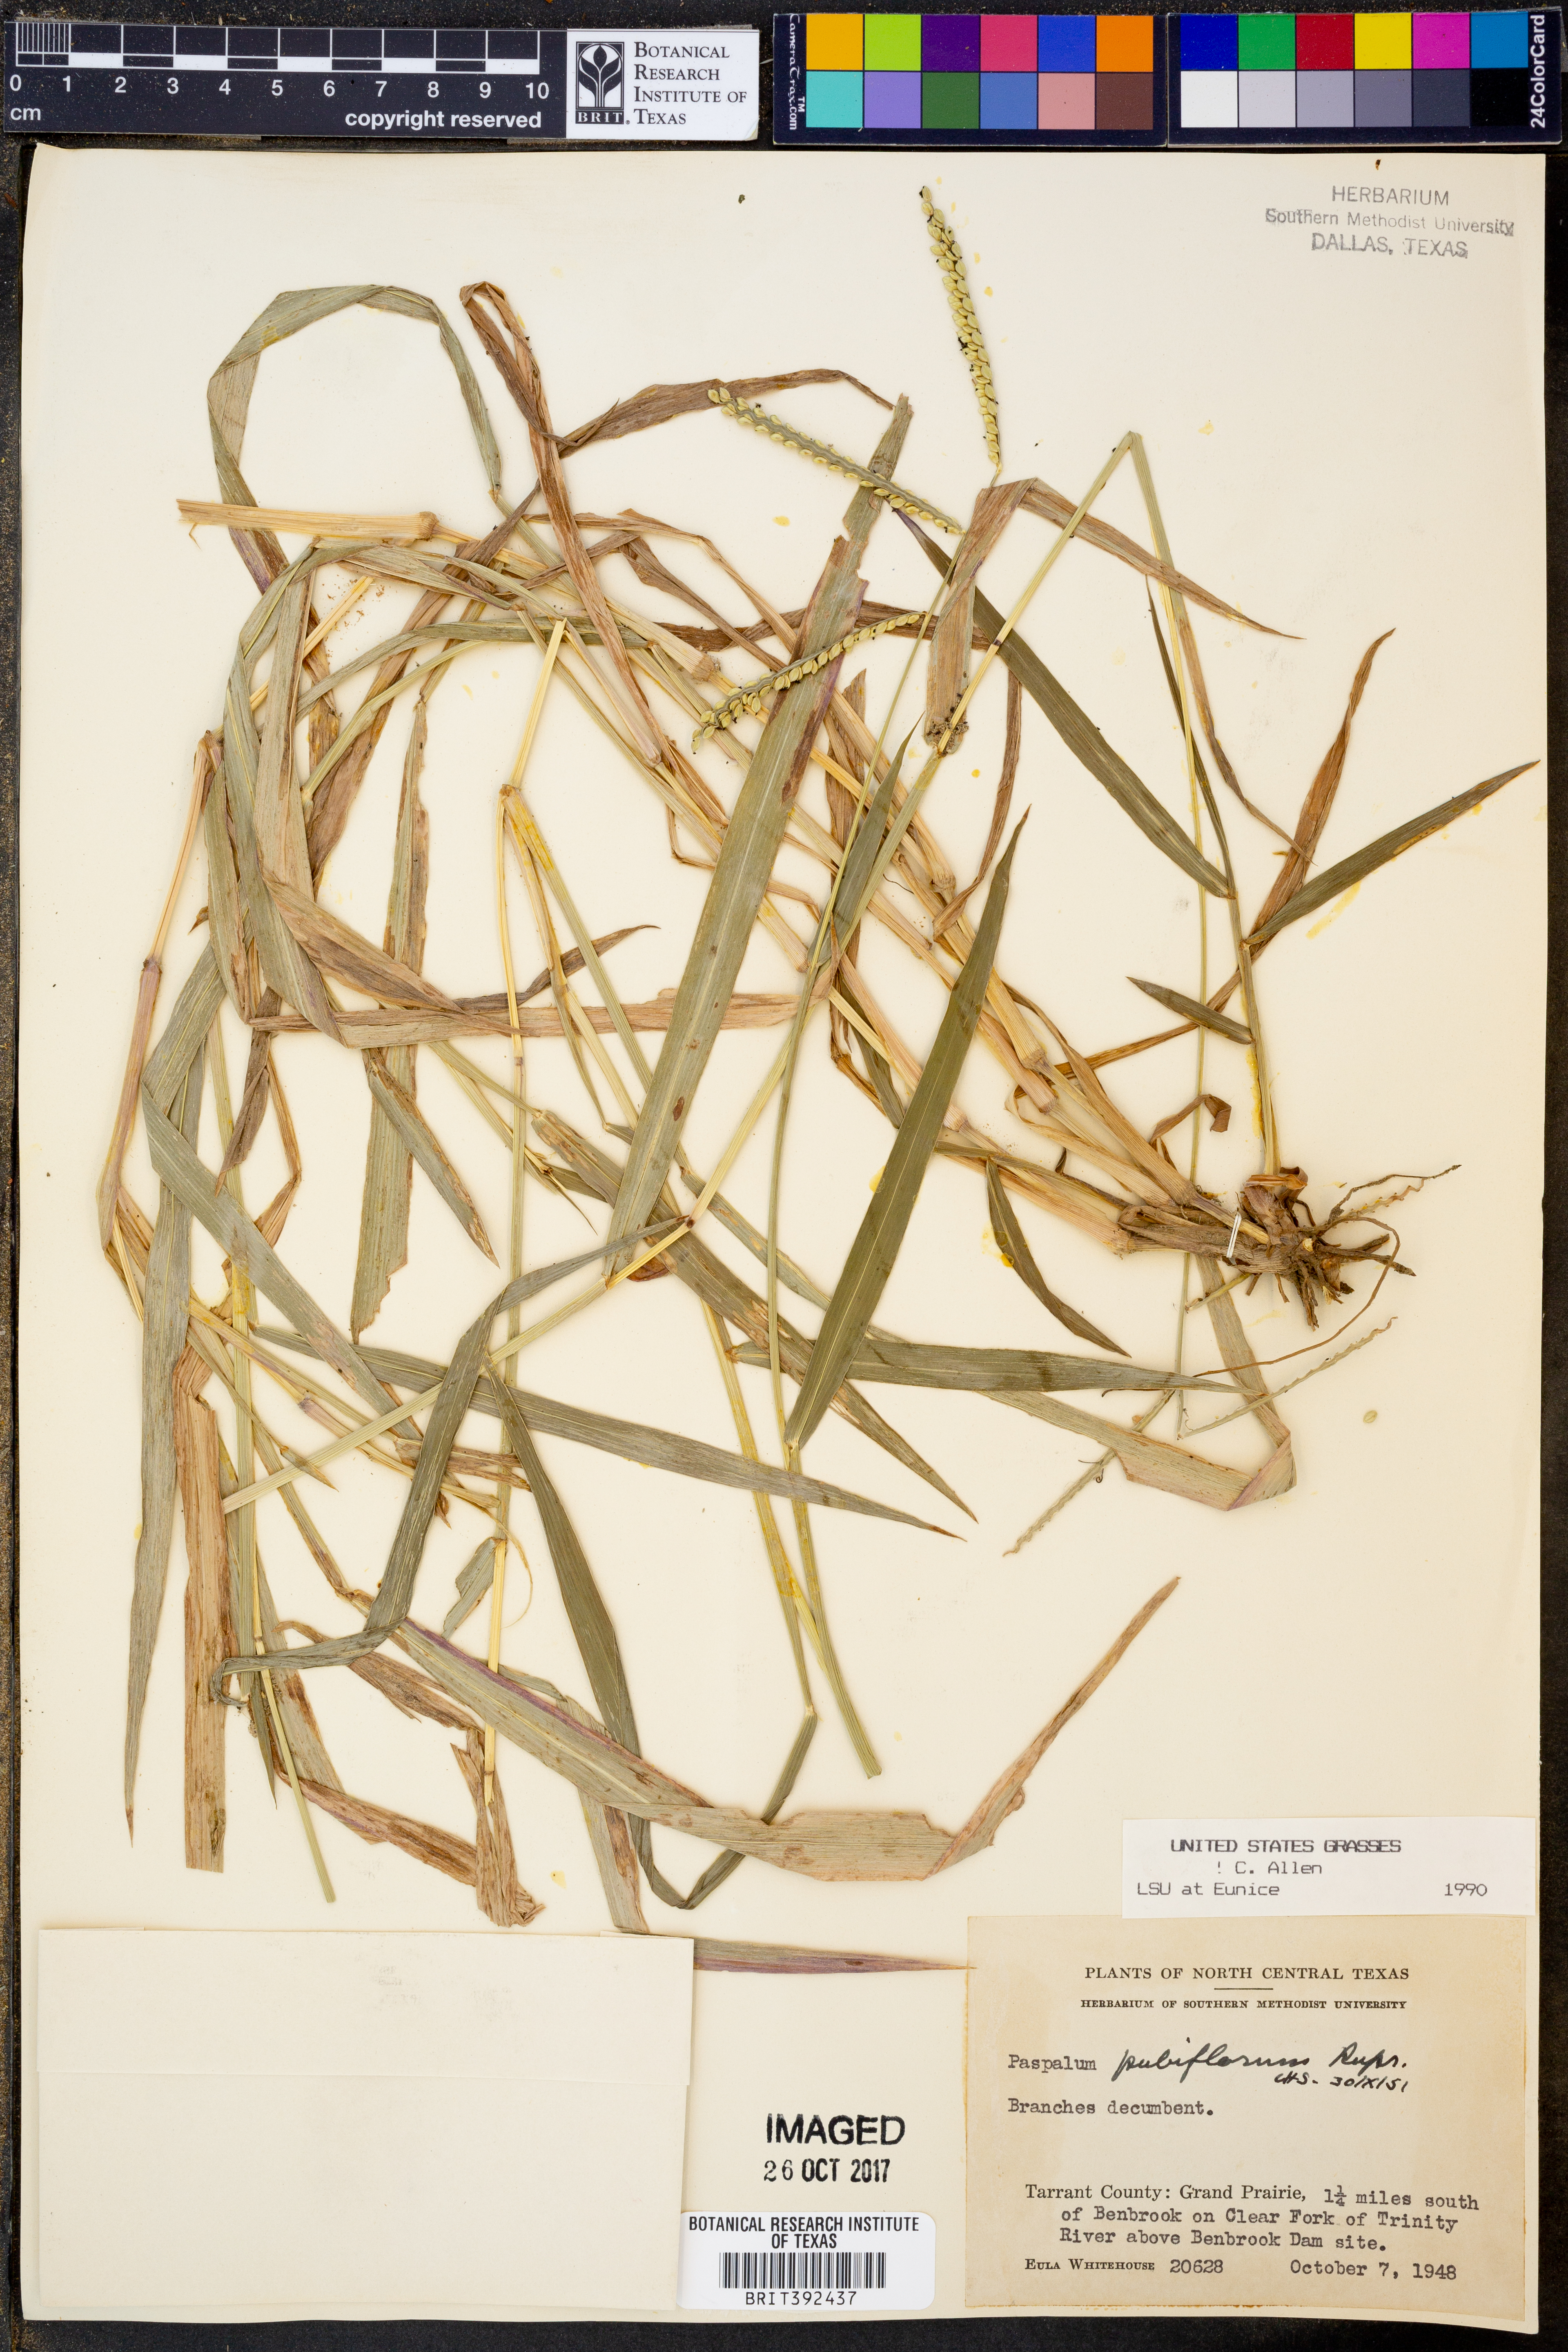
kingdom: Plantae
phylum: Tracheophyta
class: Liliopsida
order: Poales
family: Poaceae
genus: Paspalum
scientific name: Paspalum pubiflorum
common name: Hairy-seed paspalum
